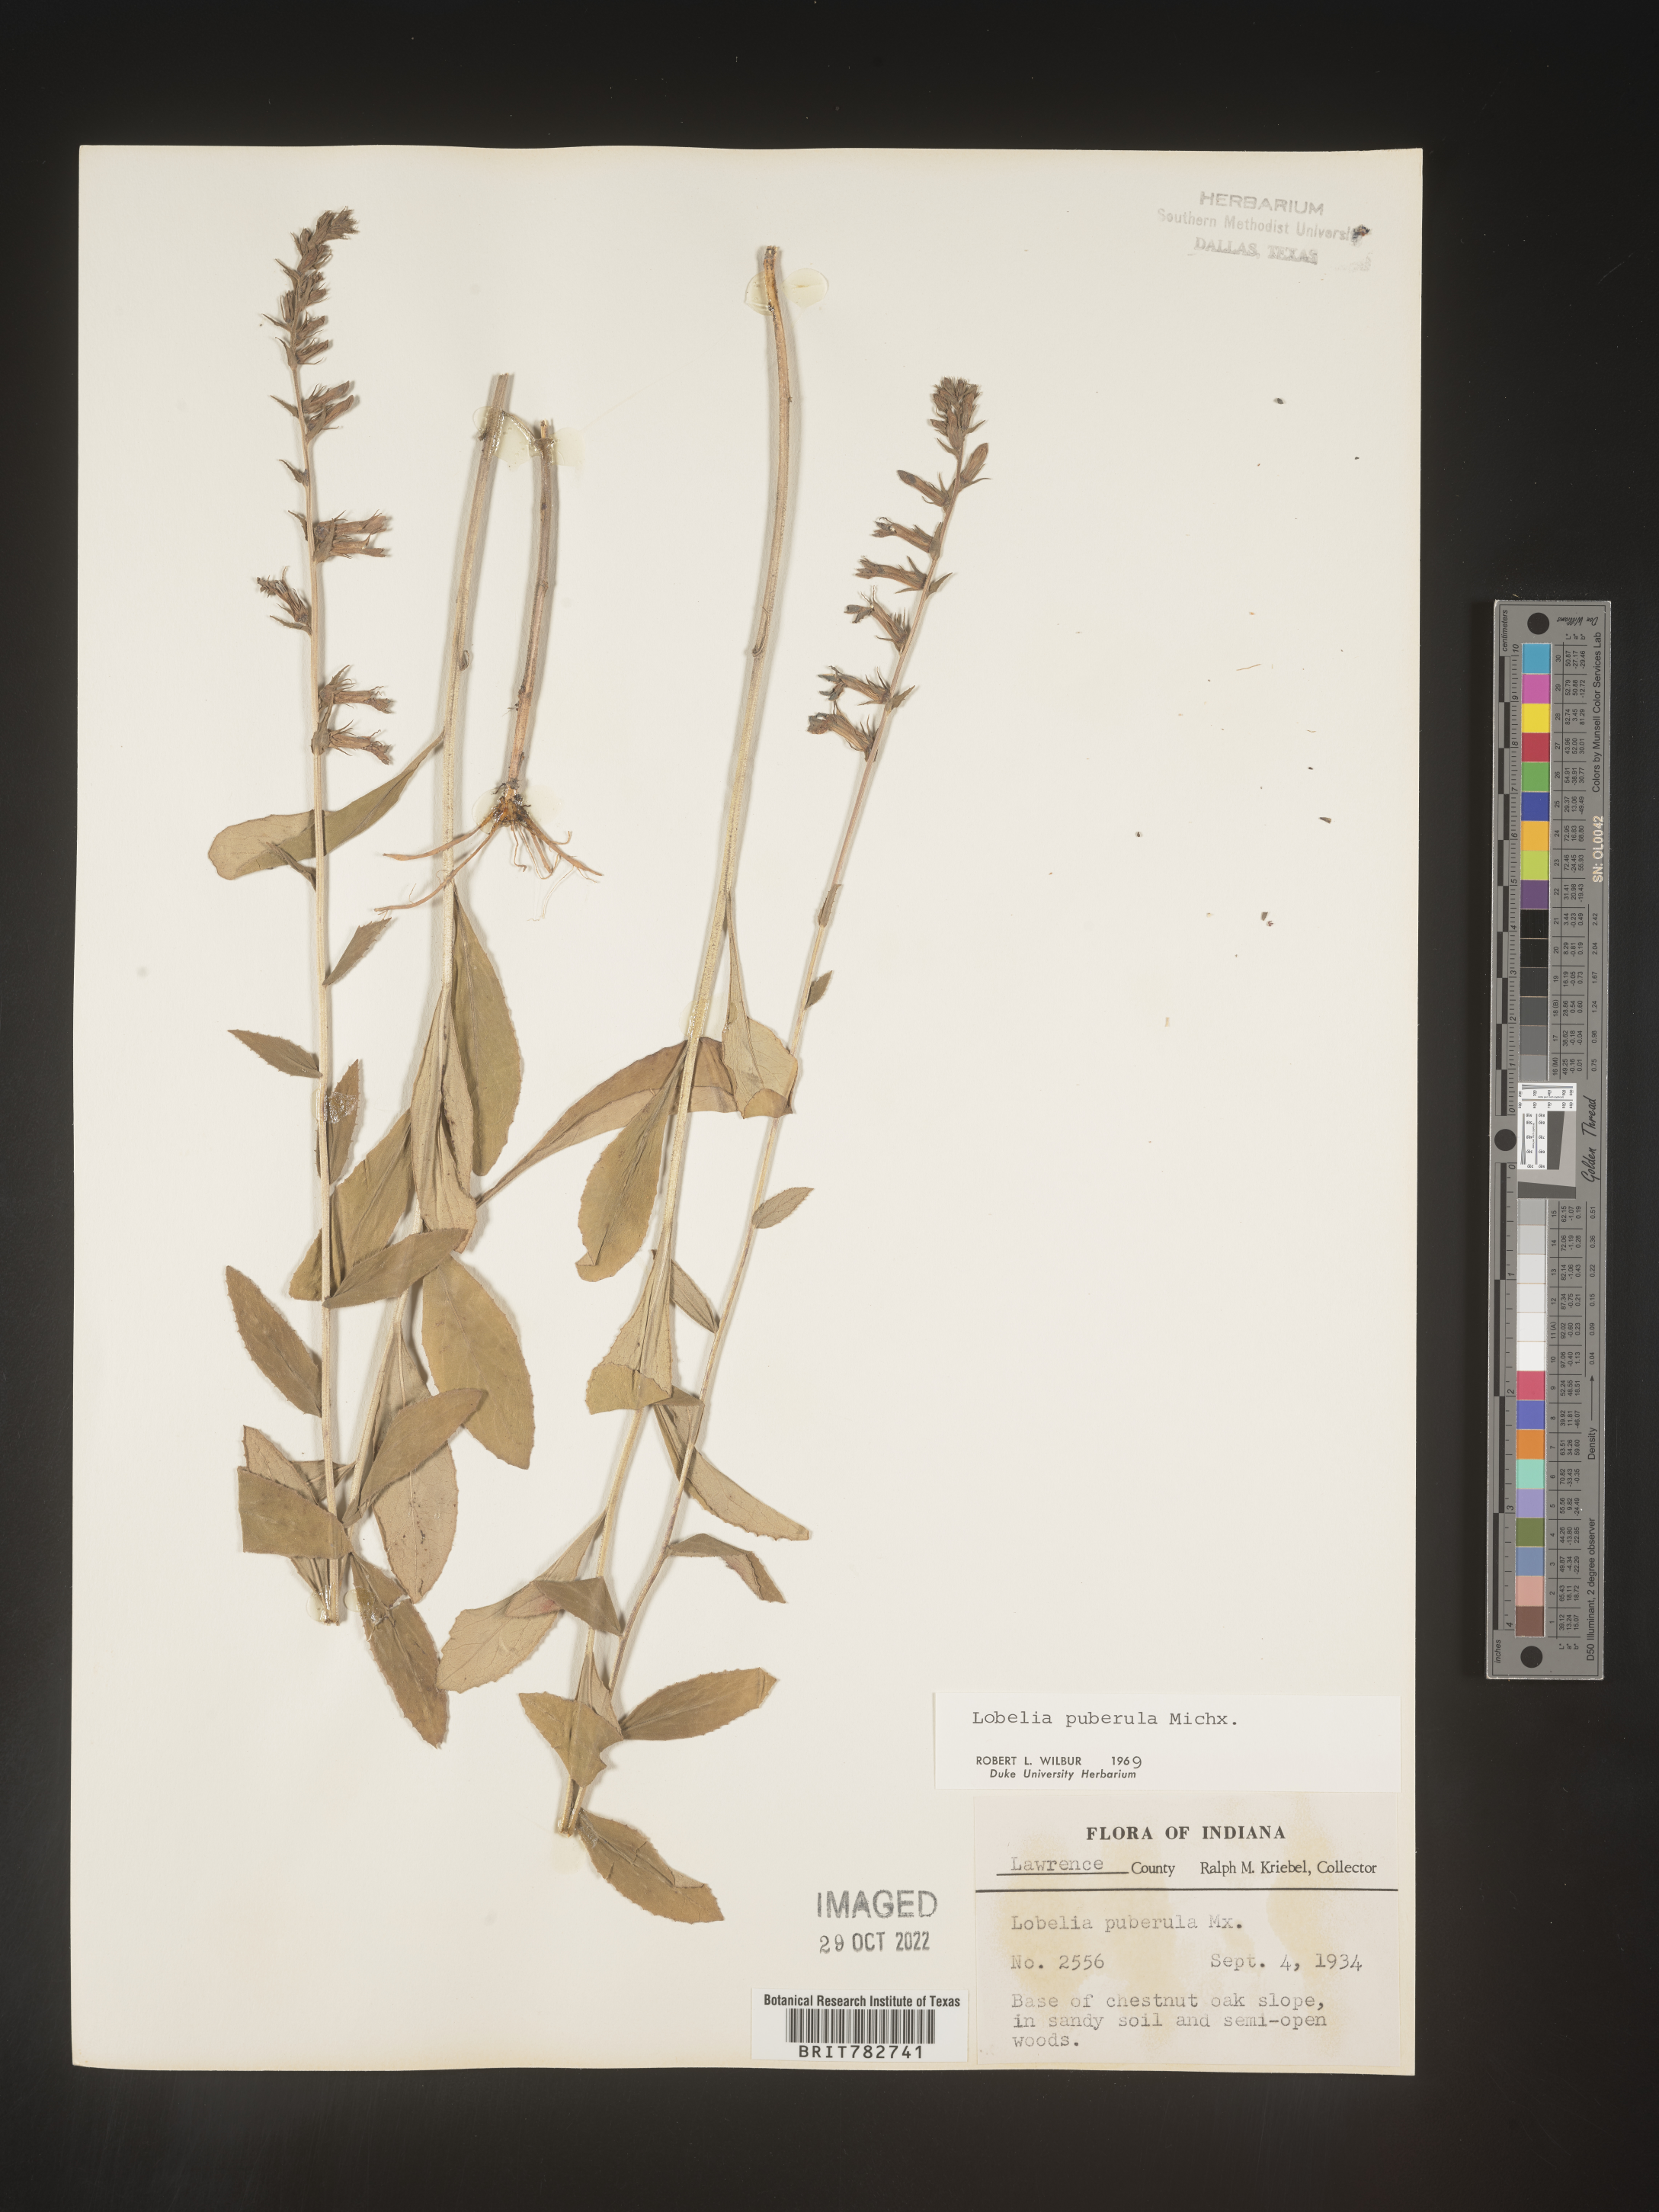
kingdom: Plantae
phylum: Tracheophyta
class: Magnoliopsida
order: Asterales
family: Campanulaceae
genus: Lobelia
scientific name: Lobelia puberula
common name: Purple dewdrop
